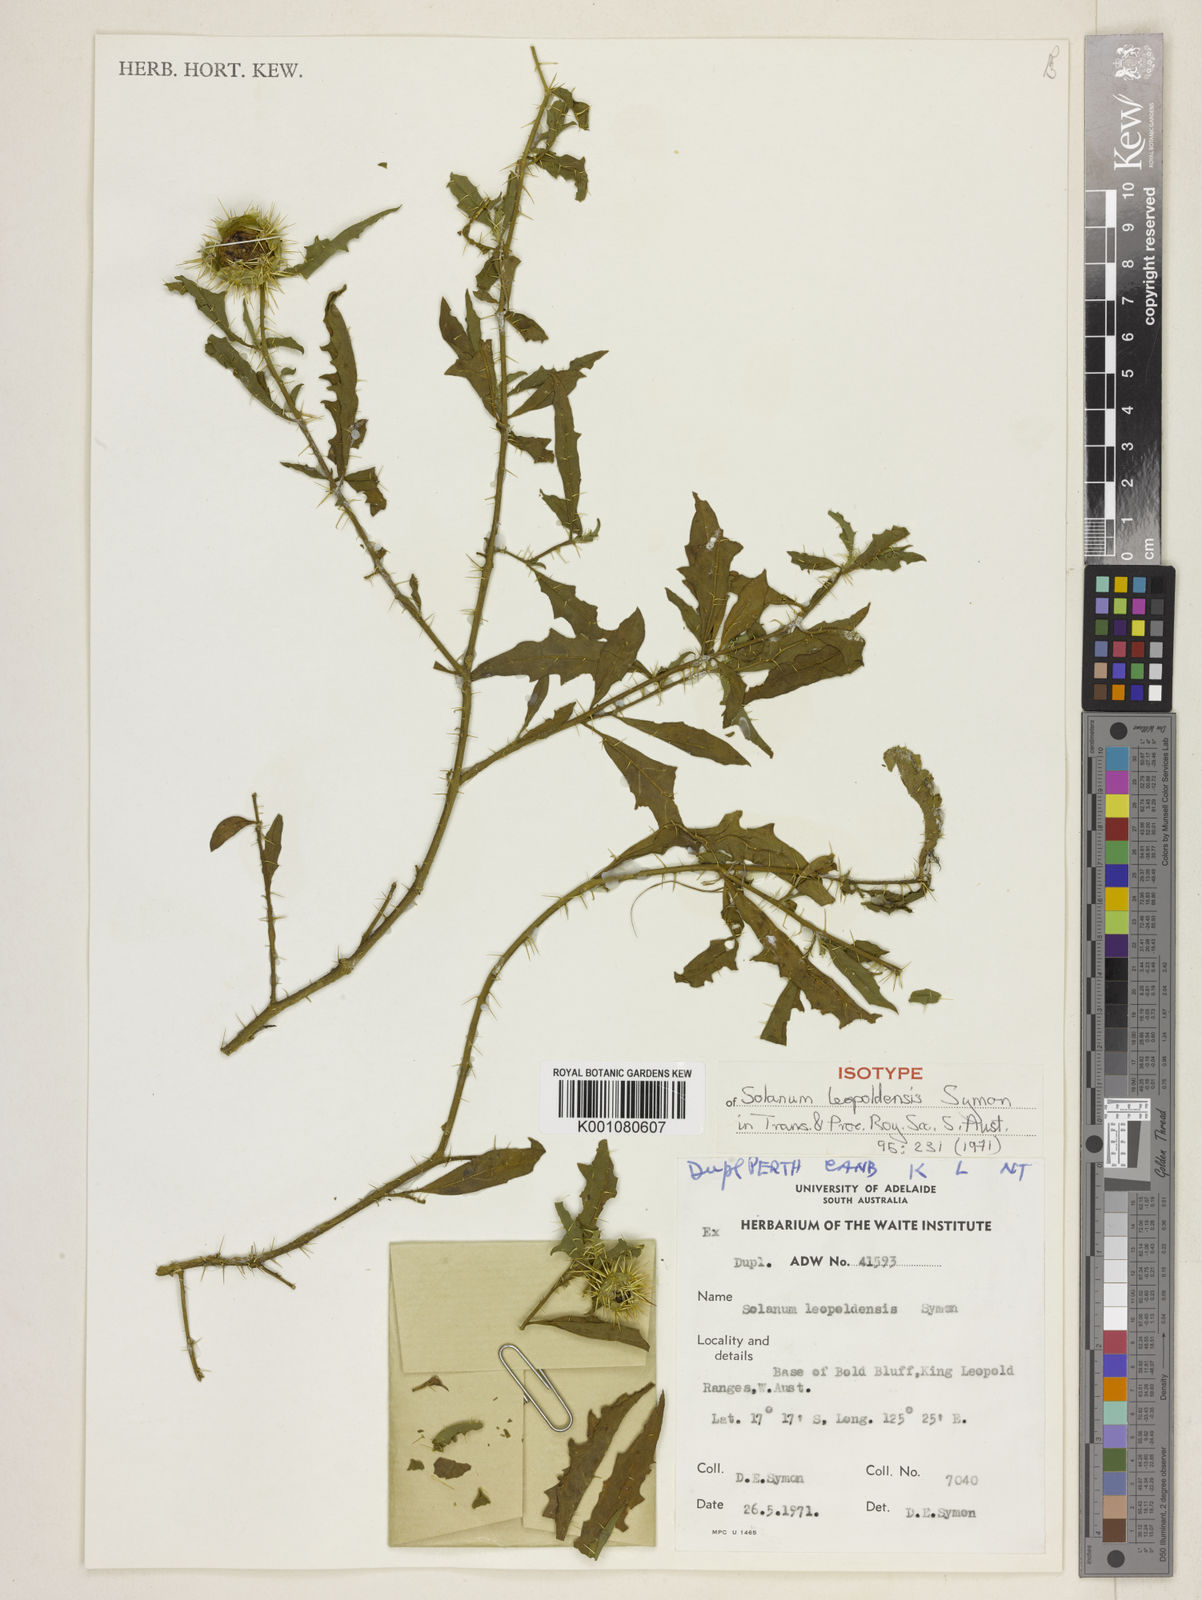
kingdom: Plantae
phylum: Tracheophyta
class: Magnoliopsida
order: Solanales
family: Solanaceae
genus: Solanum
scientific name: Solanum leopoldense
